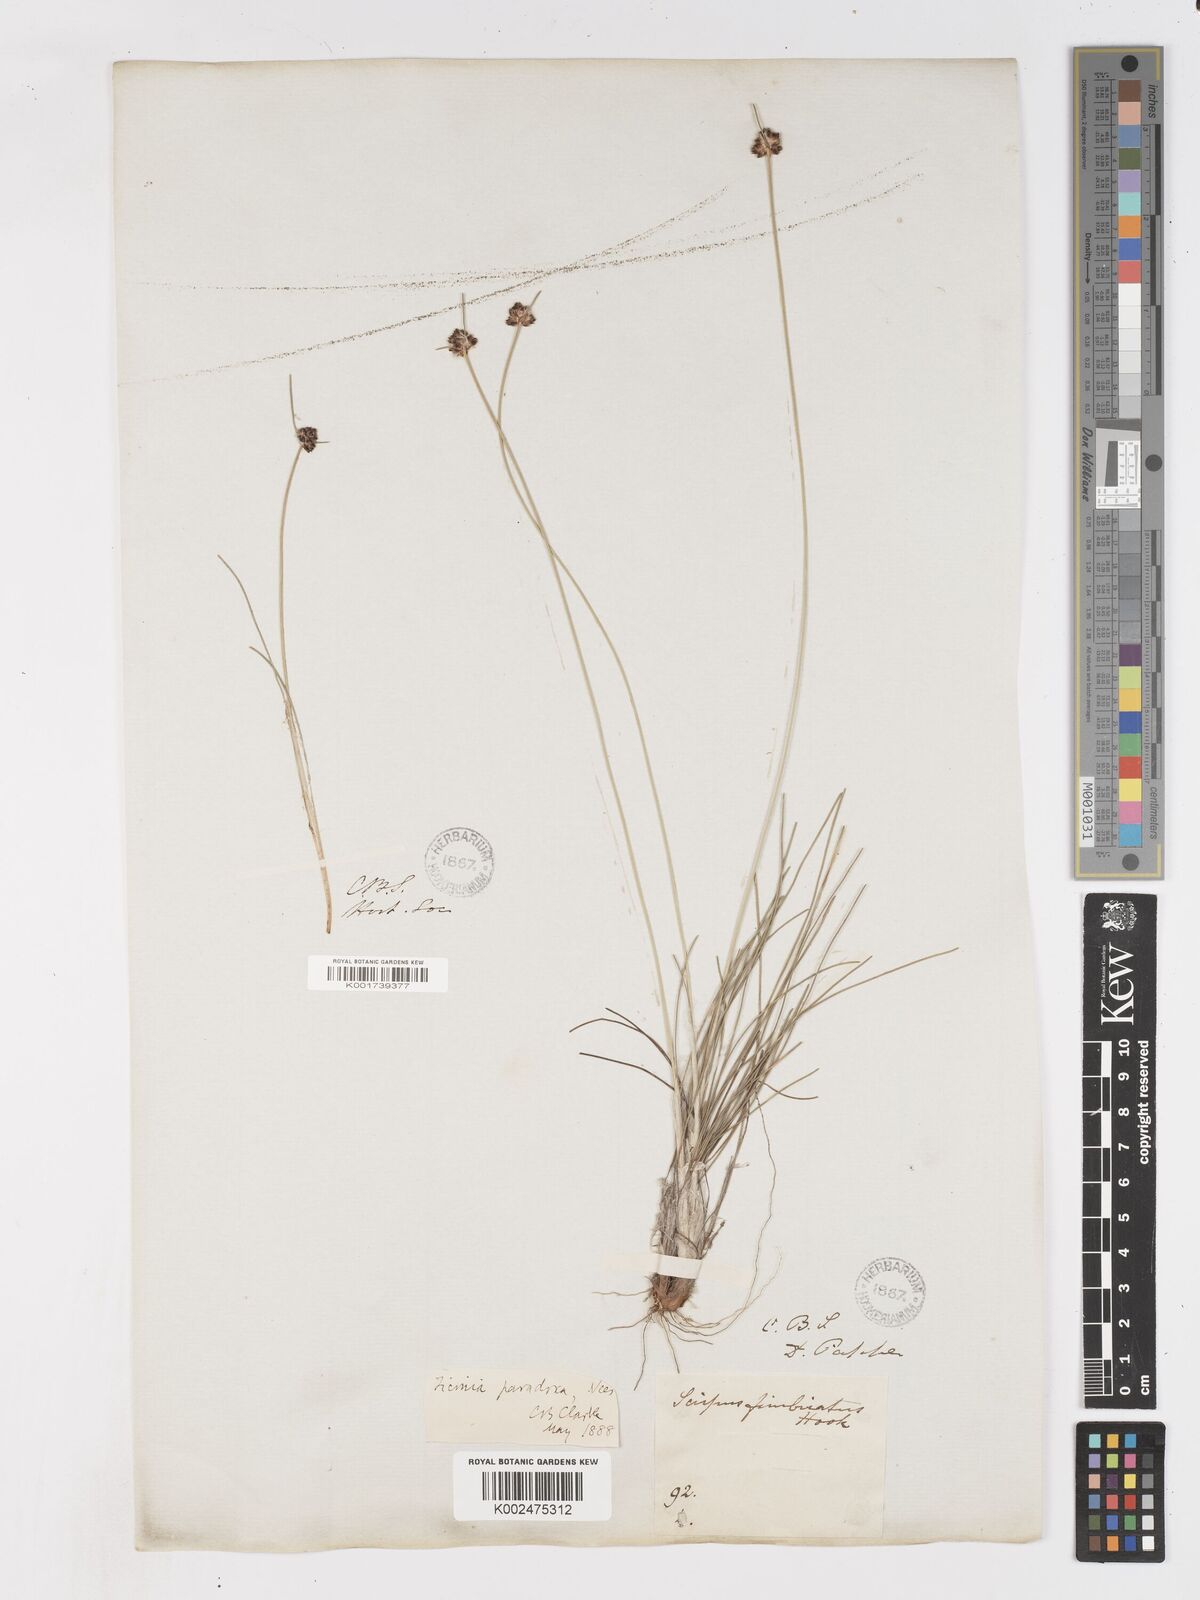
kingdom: Plantae
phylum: Tracheophyta
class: Liliopsida
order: Poales
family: Cyperaceae
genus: Ficinia
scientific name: Ficinia paradoxa
